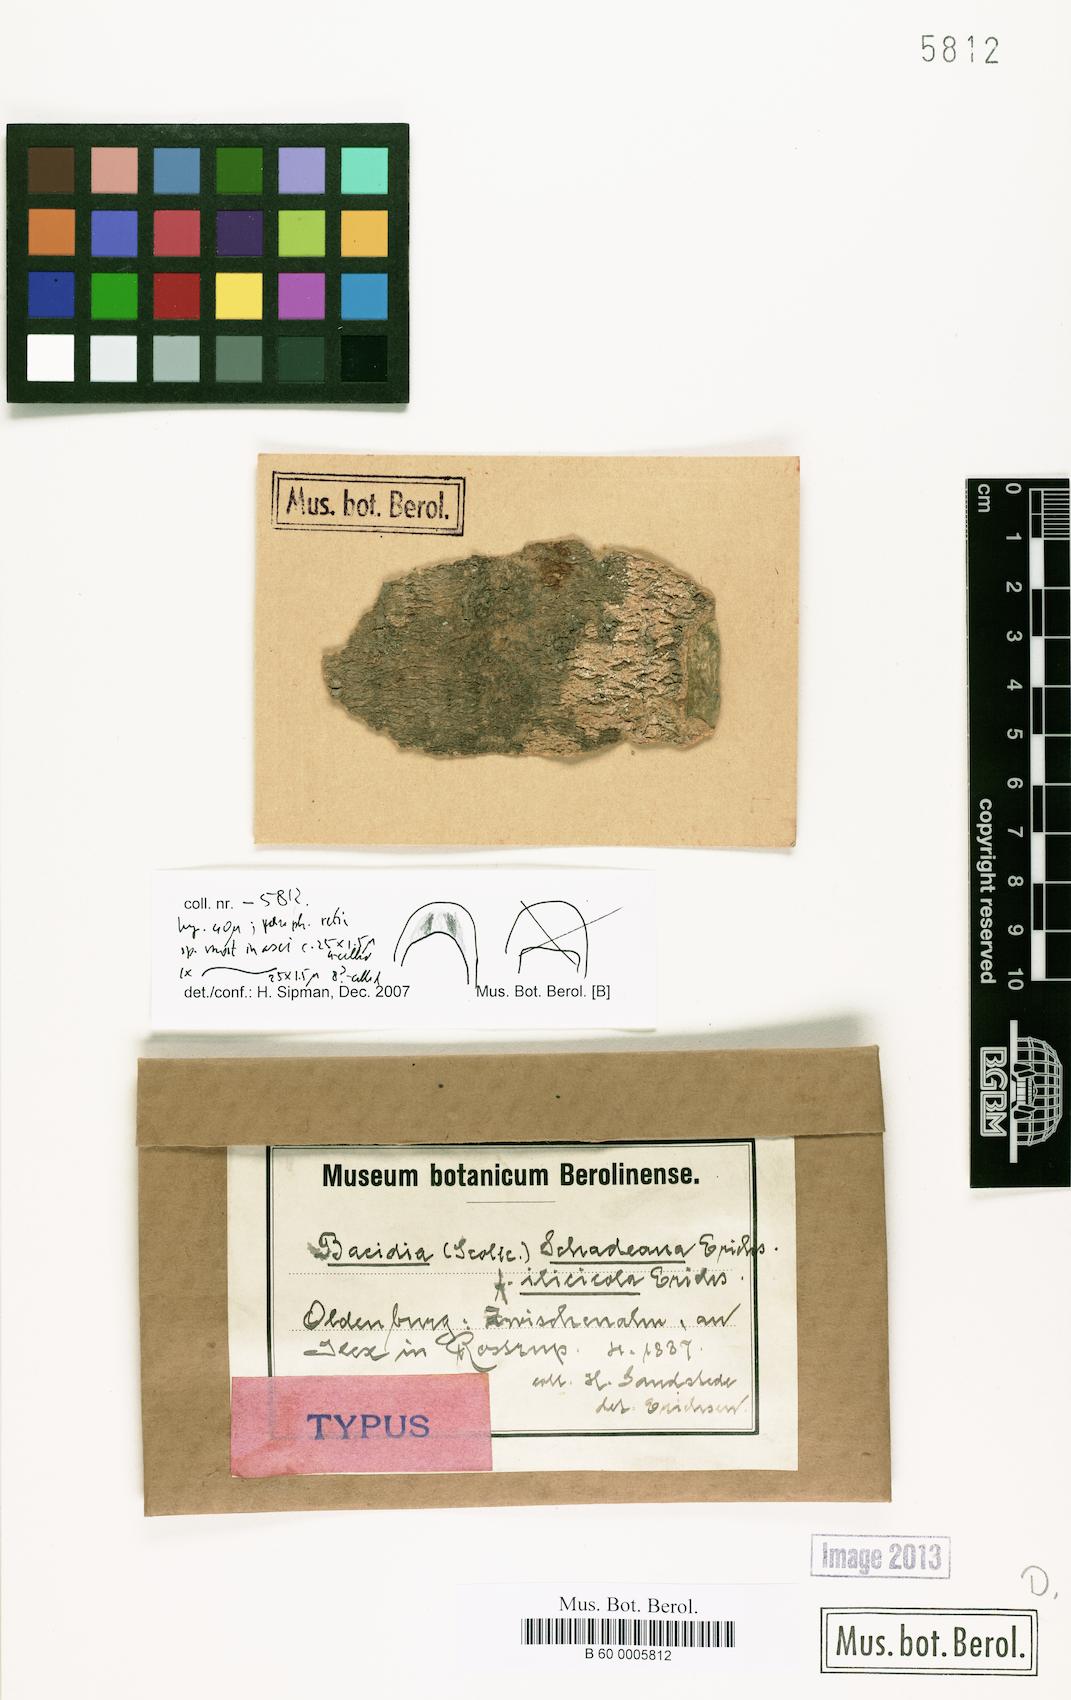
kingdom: Fungi
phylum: Ascomycota
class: Lecanoromycetes
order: Lecanorales
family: Scoliciosporaceae
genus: Scoliciosporum
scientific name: Scoliciosporum schadeanum
